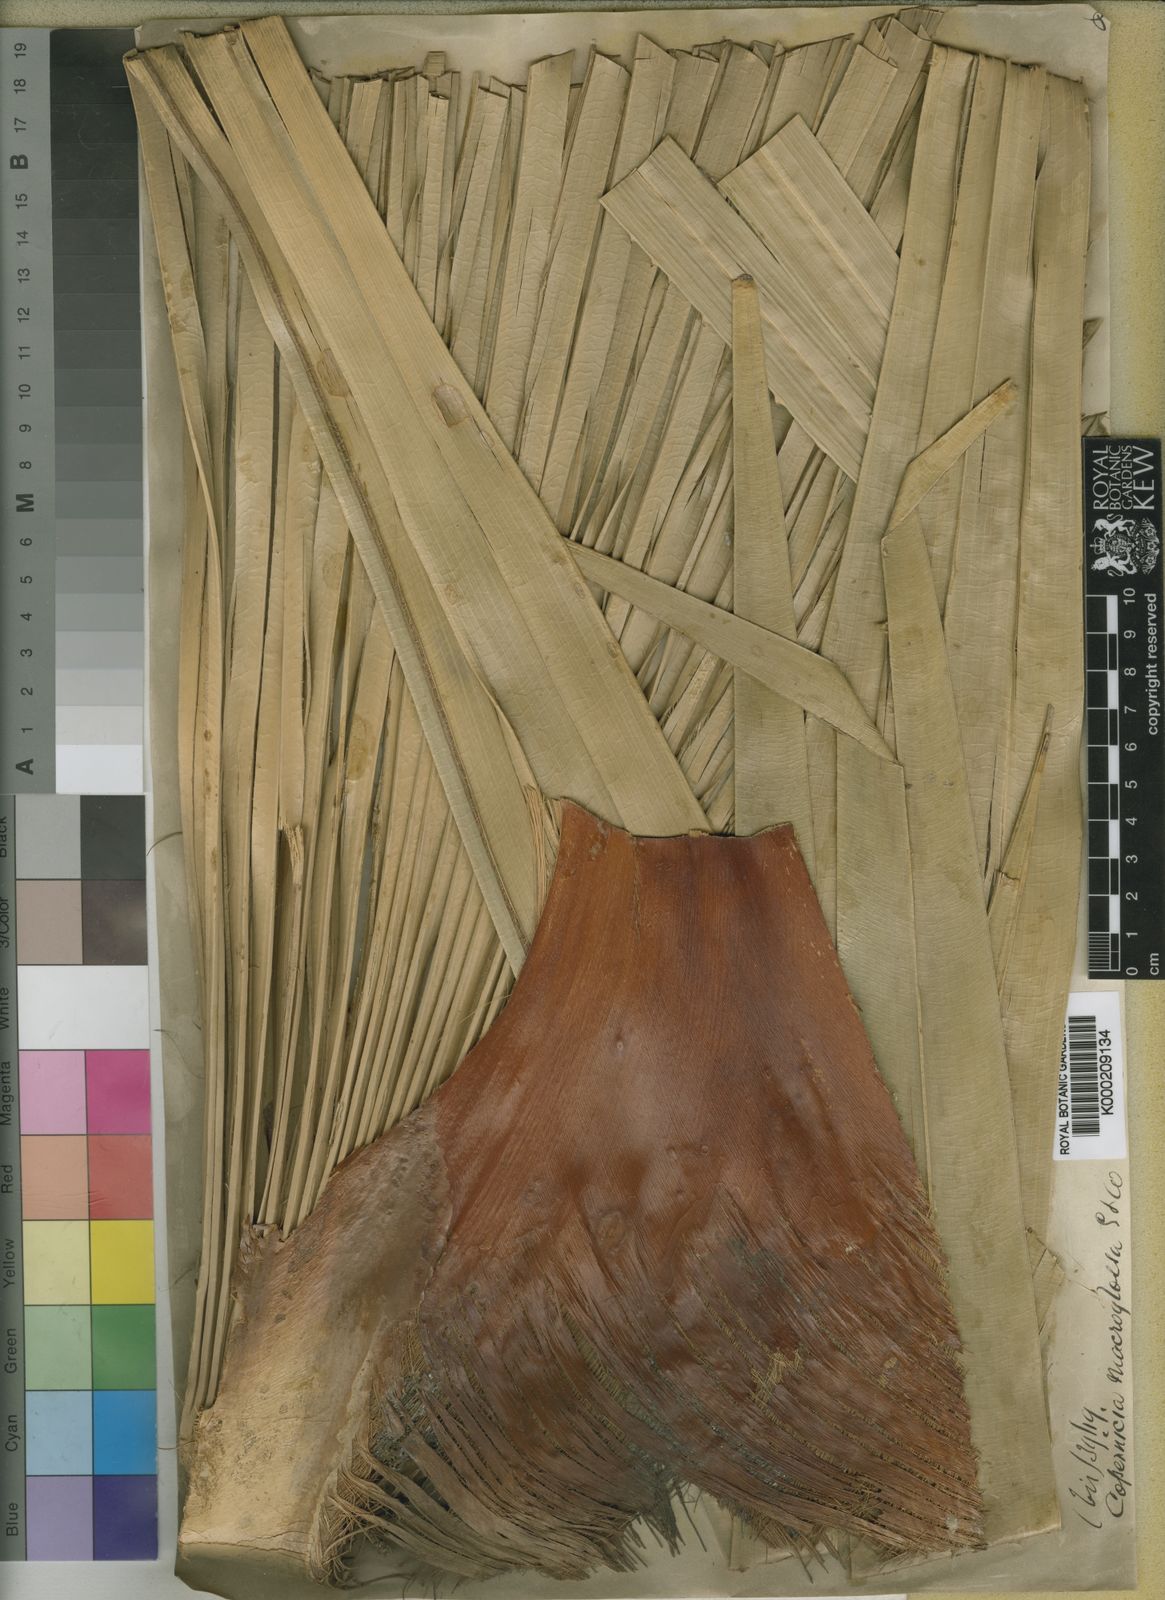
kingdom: Plantae
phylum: Tracheophyta
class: Liliopsida
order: Arecales
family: Arecaceae
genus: Copernicia
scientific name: Copernicia
